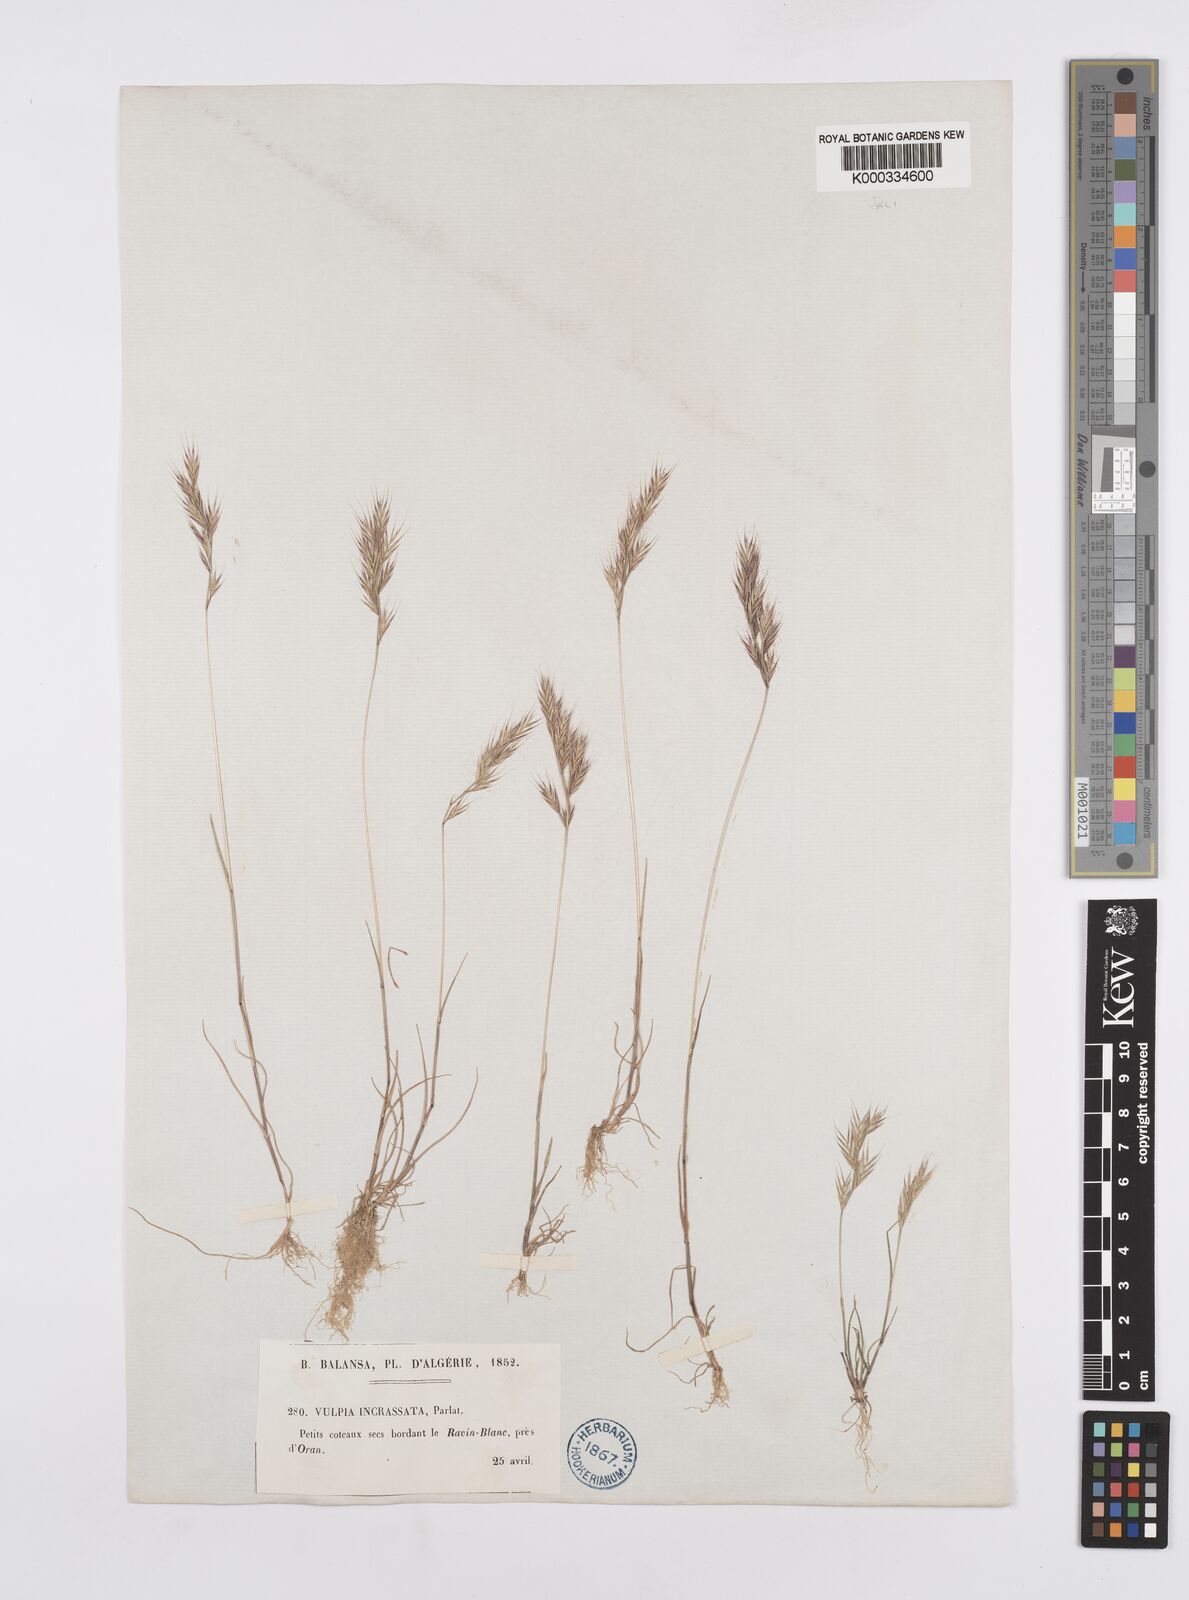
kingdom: Plantae
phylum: Tracheophyta
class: Liliopsida
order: Poales
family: Poaceae
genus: Vulpiella
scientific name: Vulpiella stipoides
